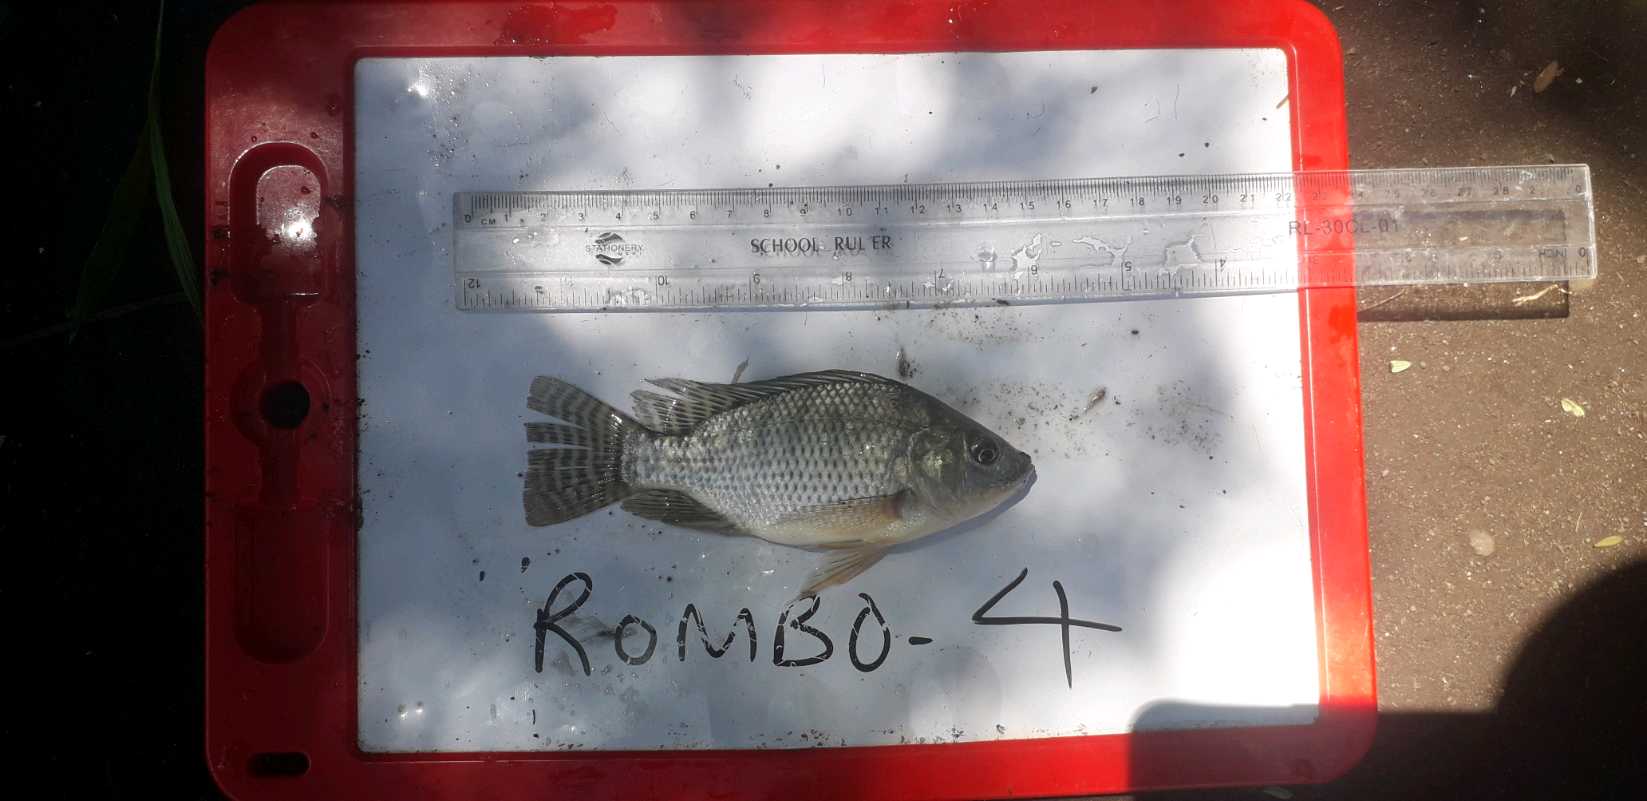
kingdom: Animalia
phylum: Chordata
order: Perciformes
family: Cichlidae
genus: Oreochromis
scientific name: Oreochromis niloticus
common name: Nile tilapia
